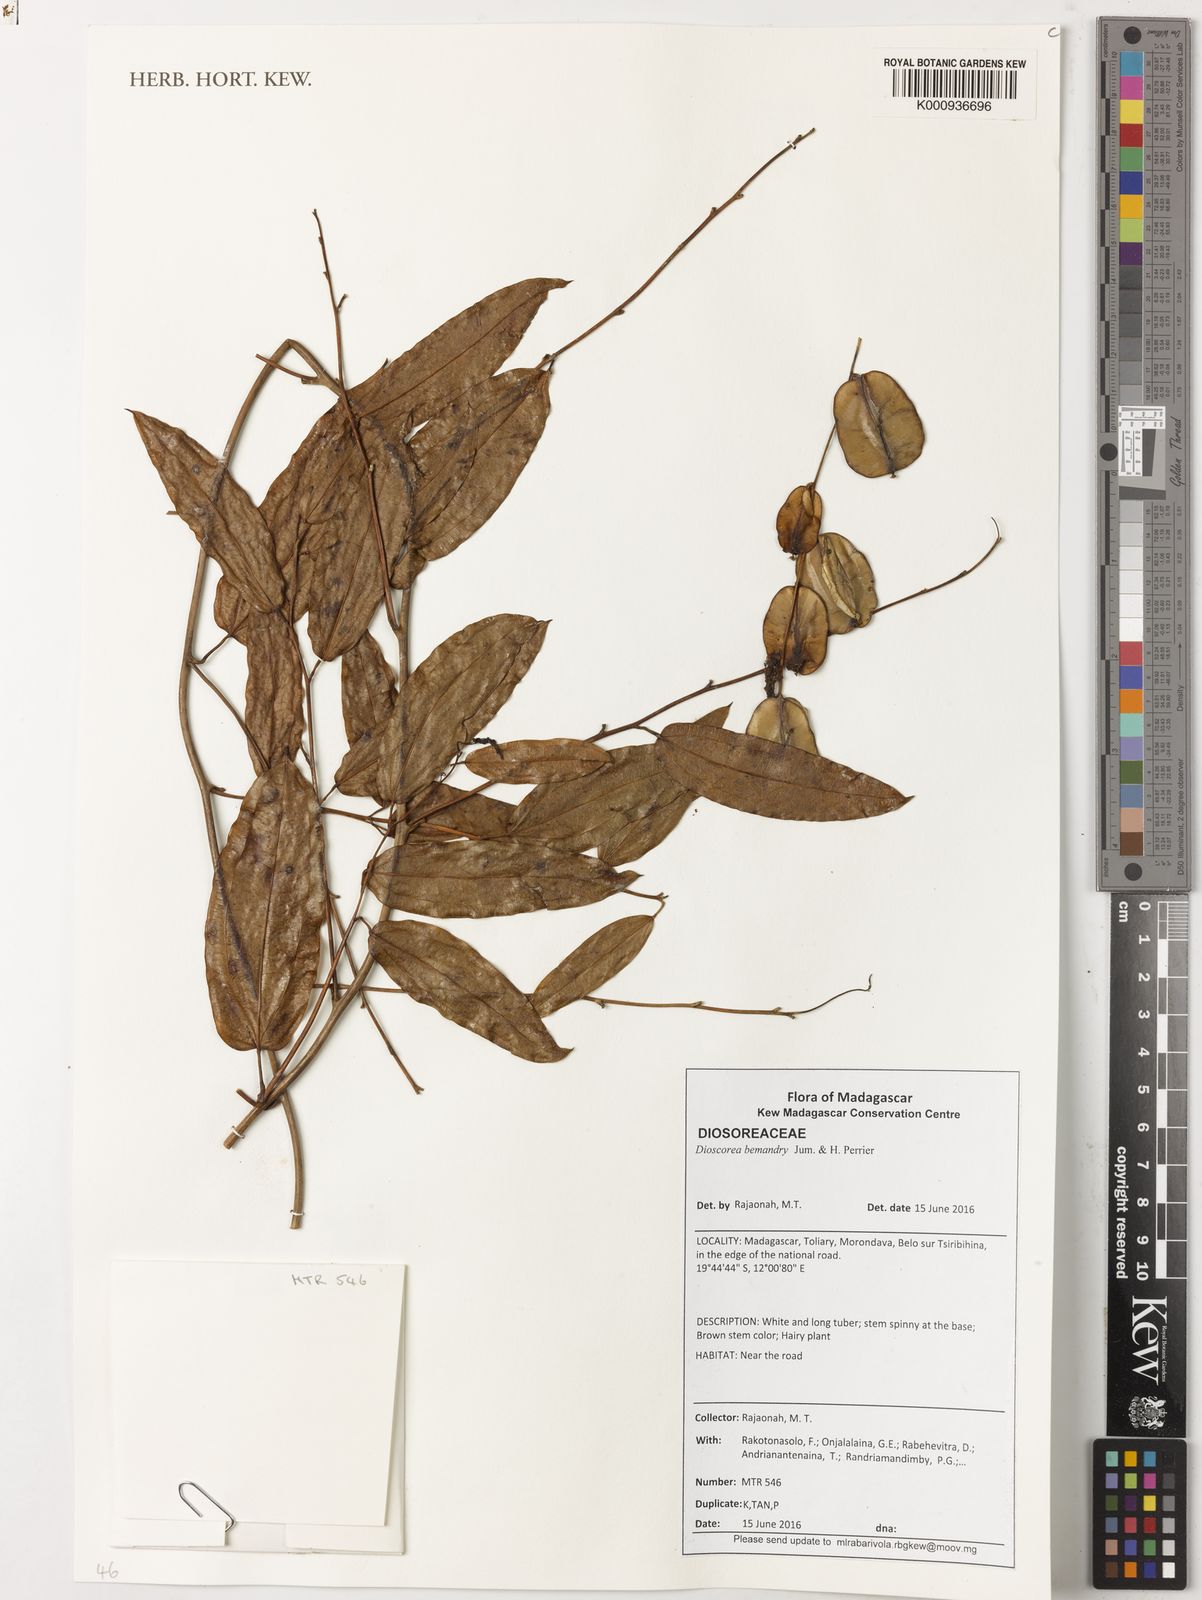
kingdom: Plantae
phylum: Tracheophyta
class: Liliopsida
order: Dioscoreales
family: Dioscoreaceae
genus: Dioscorea
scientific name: Dioscorea bemandry
